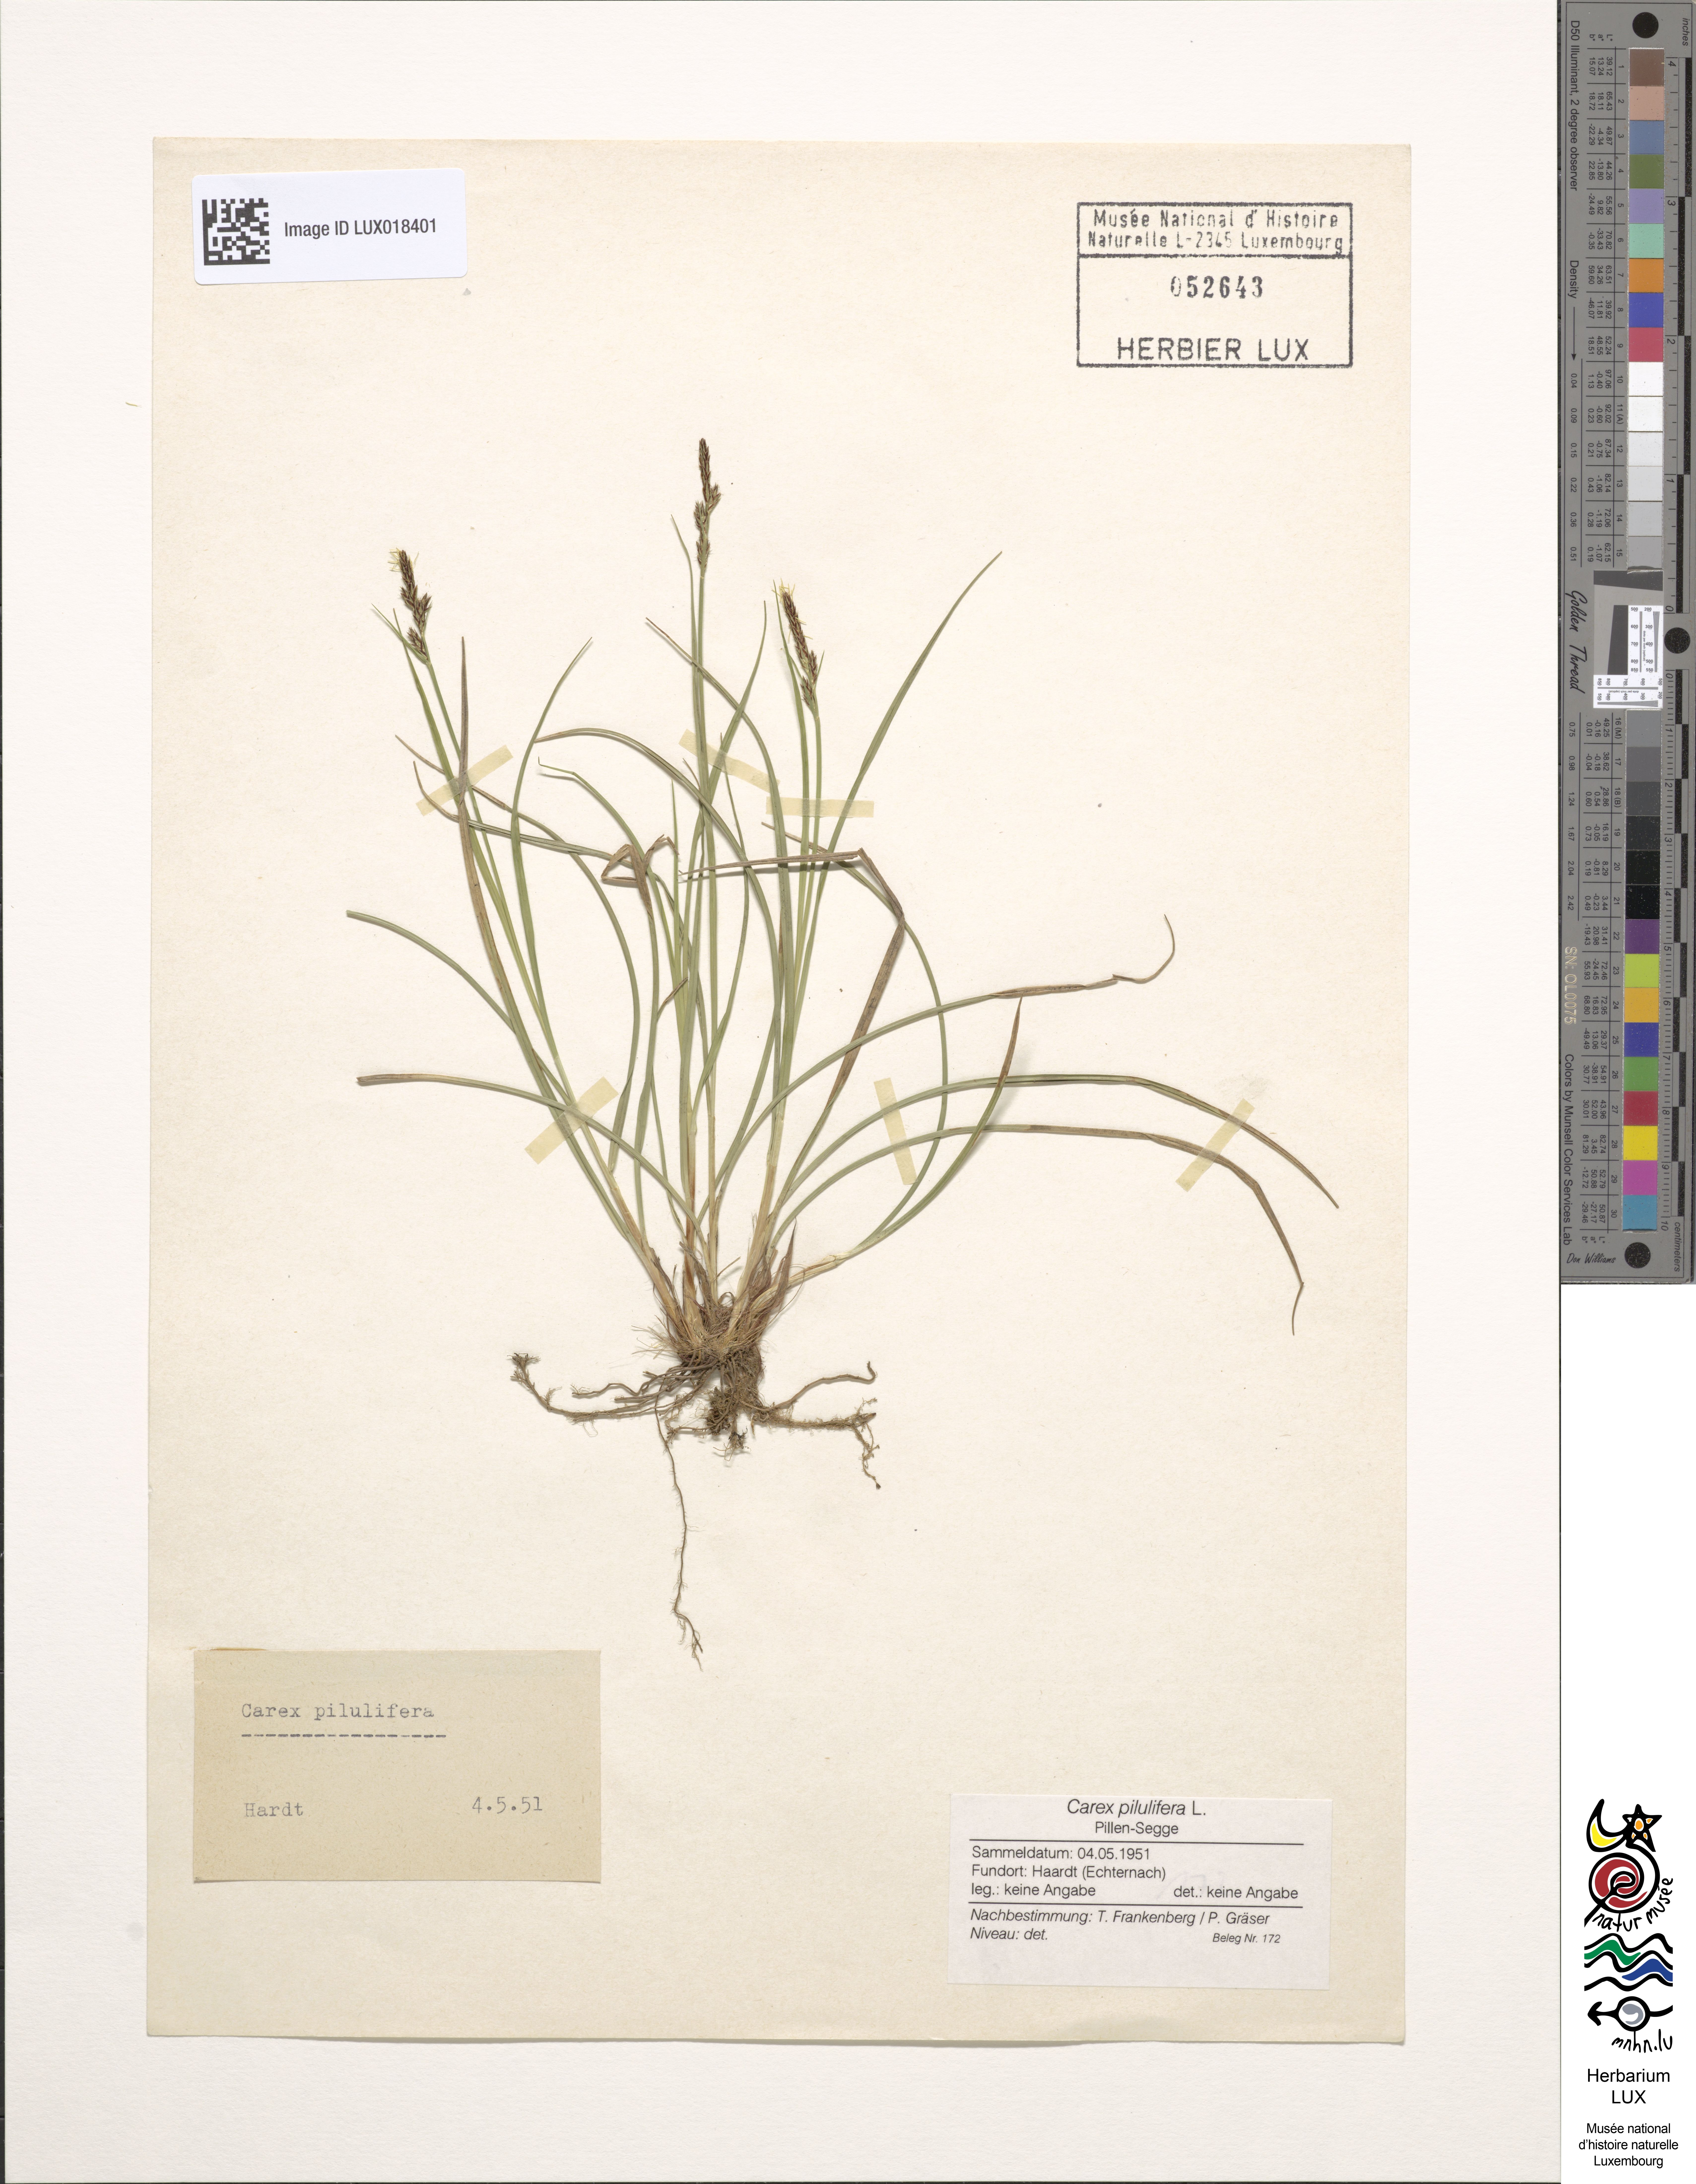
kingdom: Plantae
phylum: Tracheophyta
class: Liliopsida
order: Poales
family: Cyperaceae
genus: Carex
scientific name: Carex pilulifera
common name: Pill sedge
